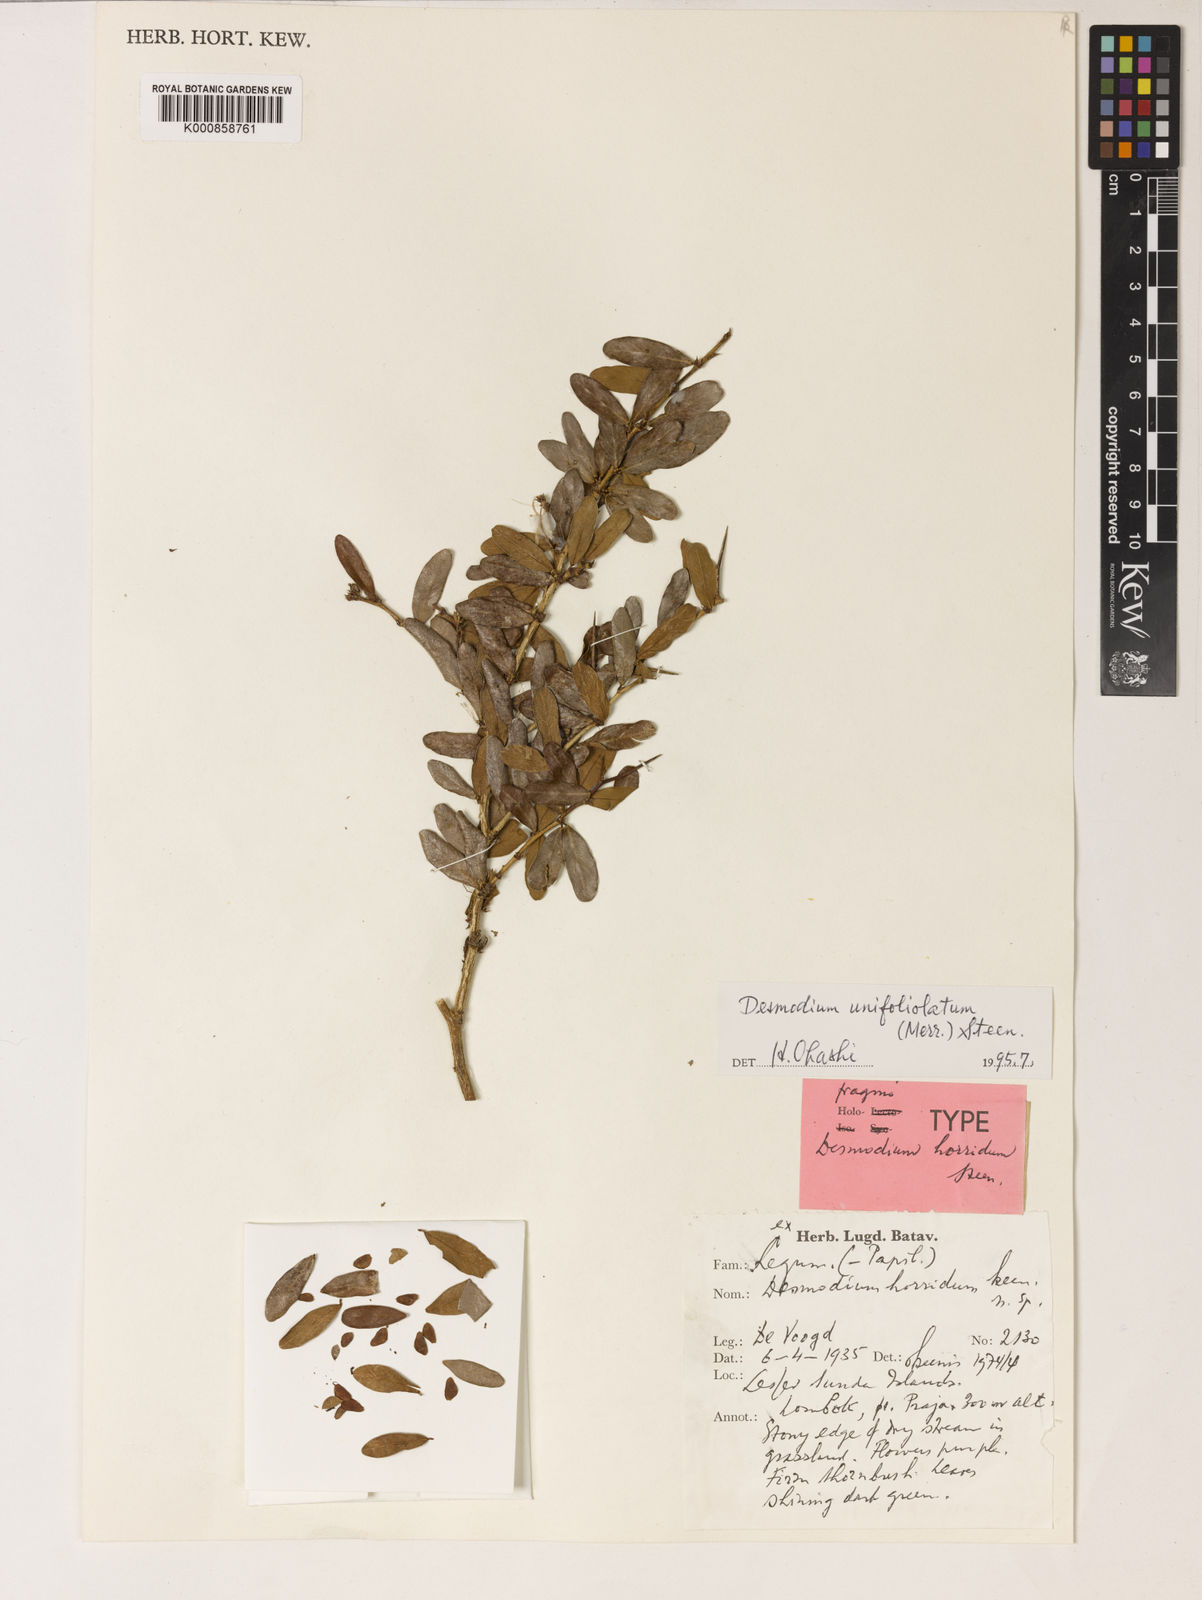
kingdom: Plantae
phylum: Tracheophyta
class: Magnoliopsida
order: Fabales
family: Fabaceae
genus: Trifidacanthus
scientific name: Trifidacanthus unifoliolatus
